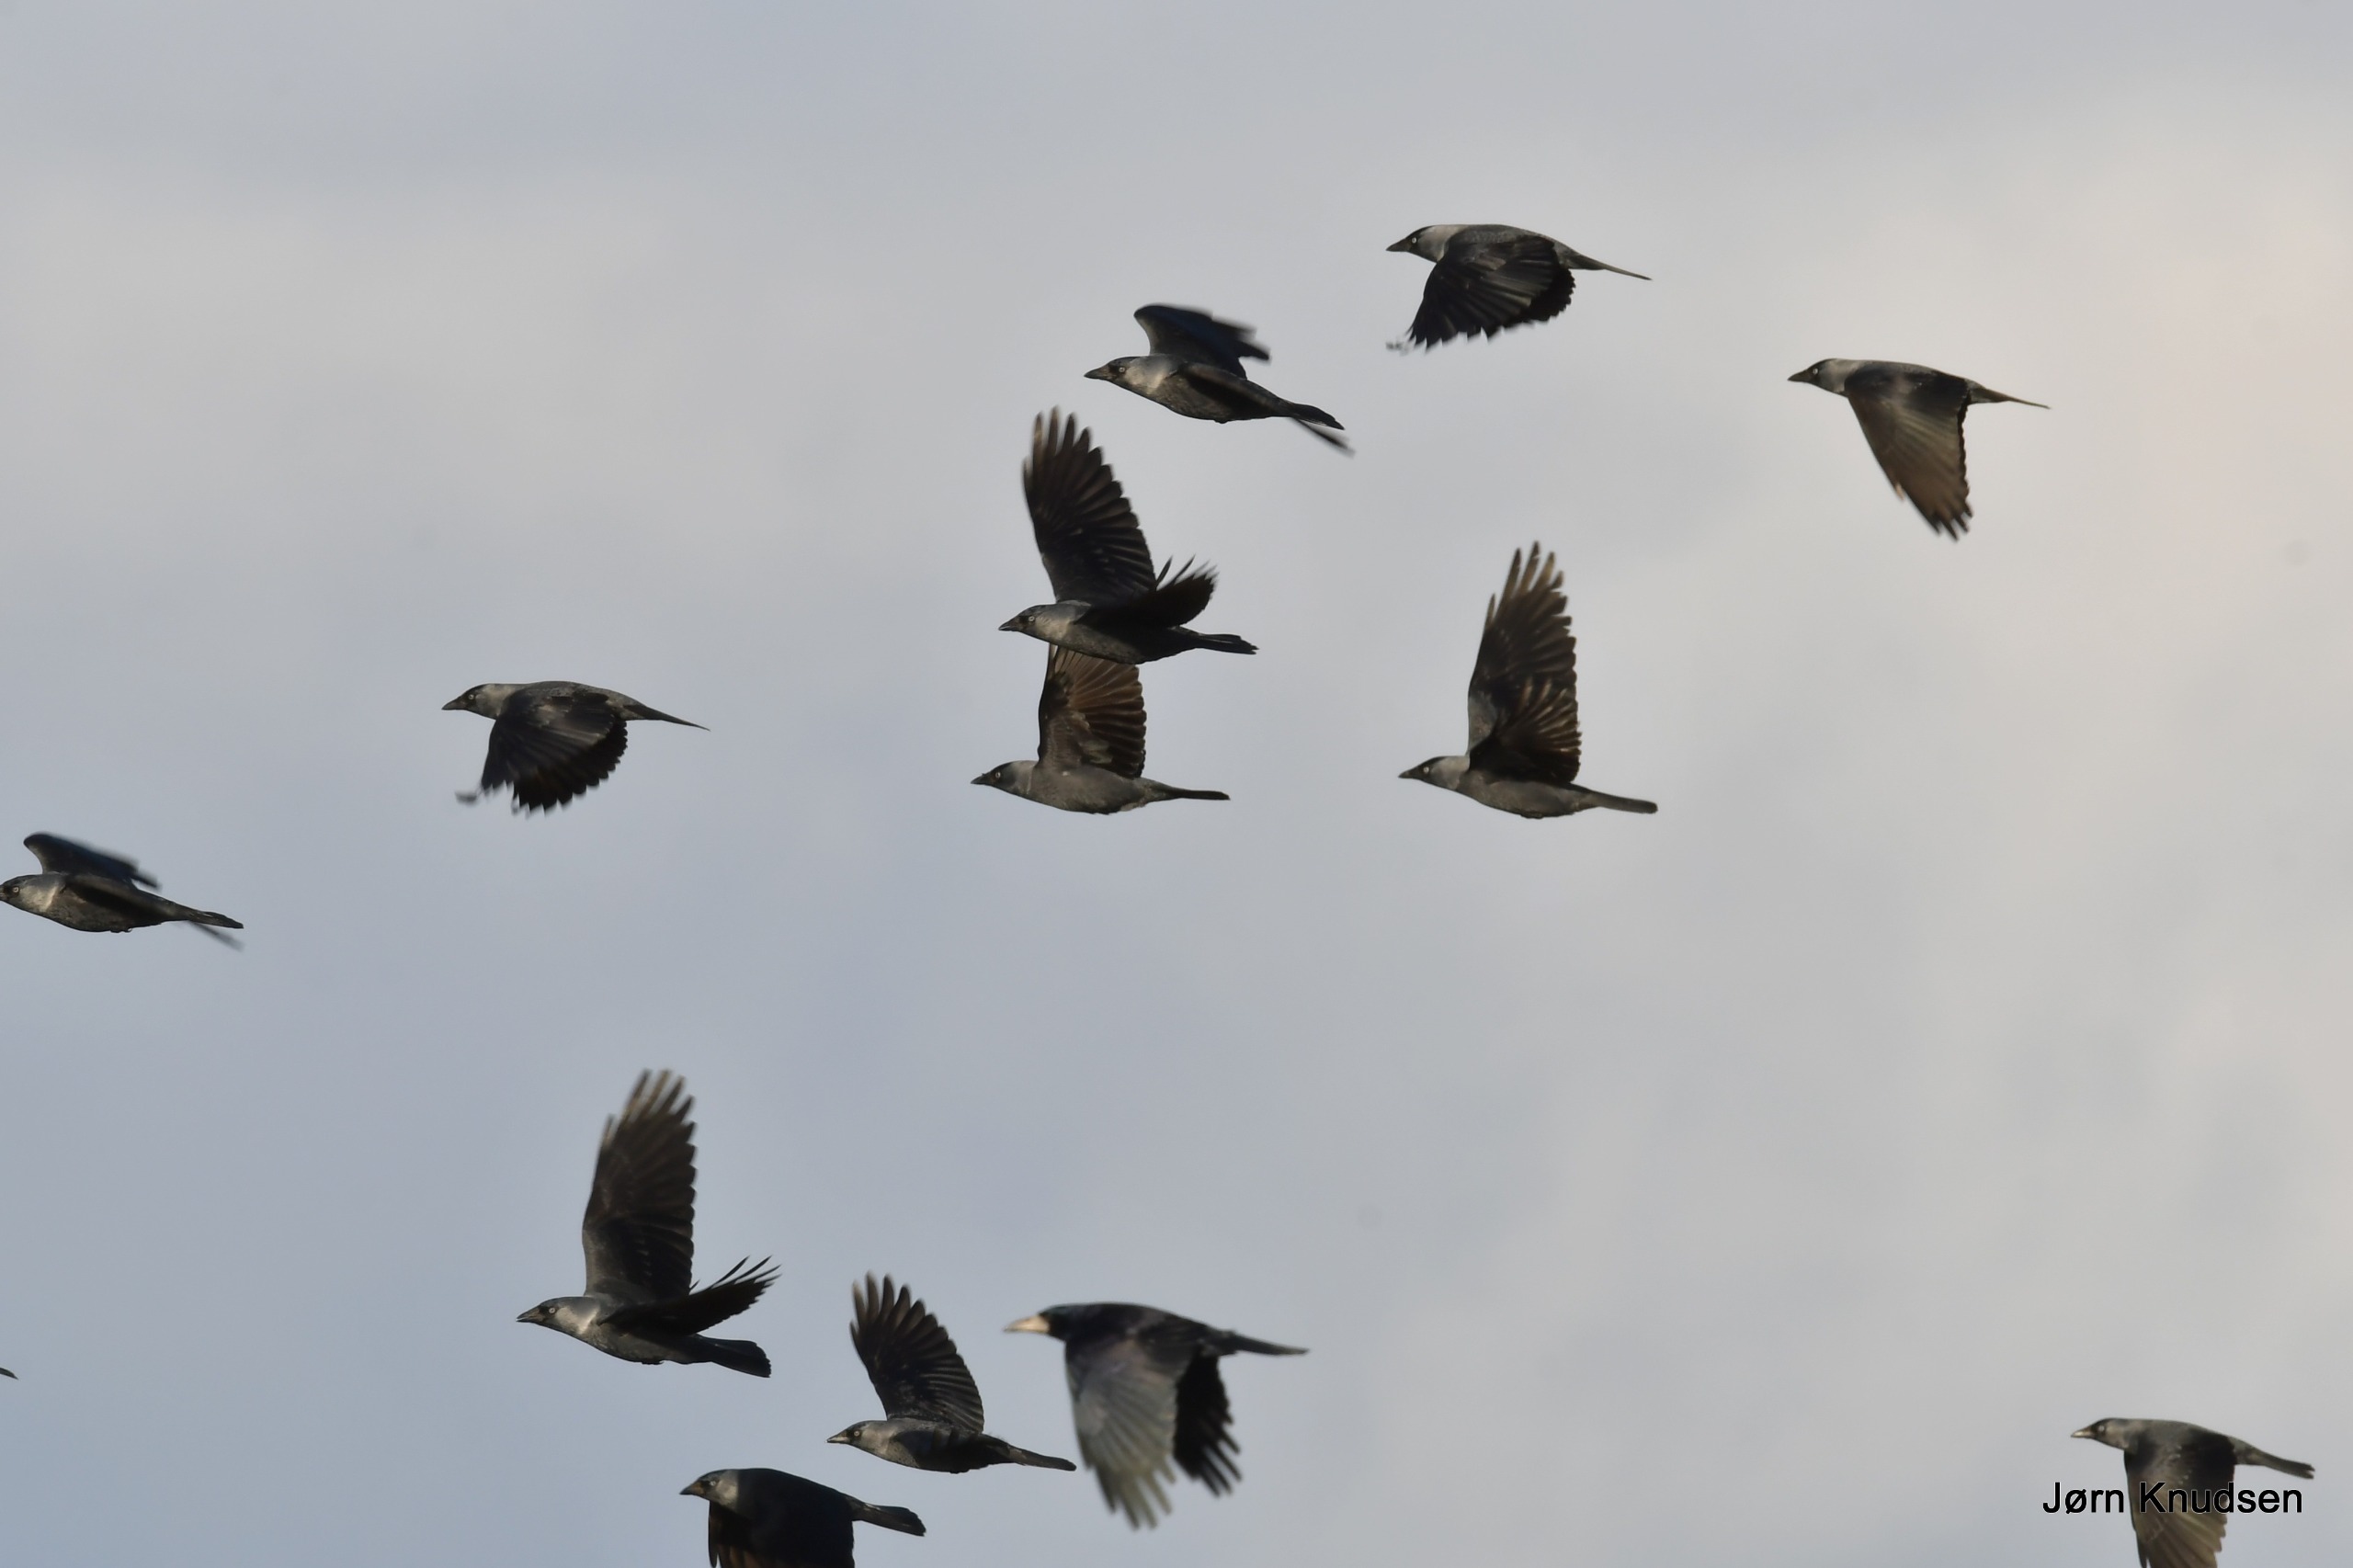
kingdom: Animalia
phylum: Chordata
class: Aves
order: Passeriformes
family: Corvidae
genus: Coloeus
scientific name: Coloeus monedula
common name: Allike
